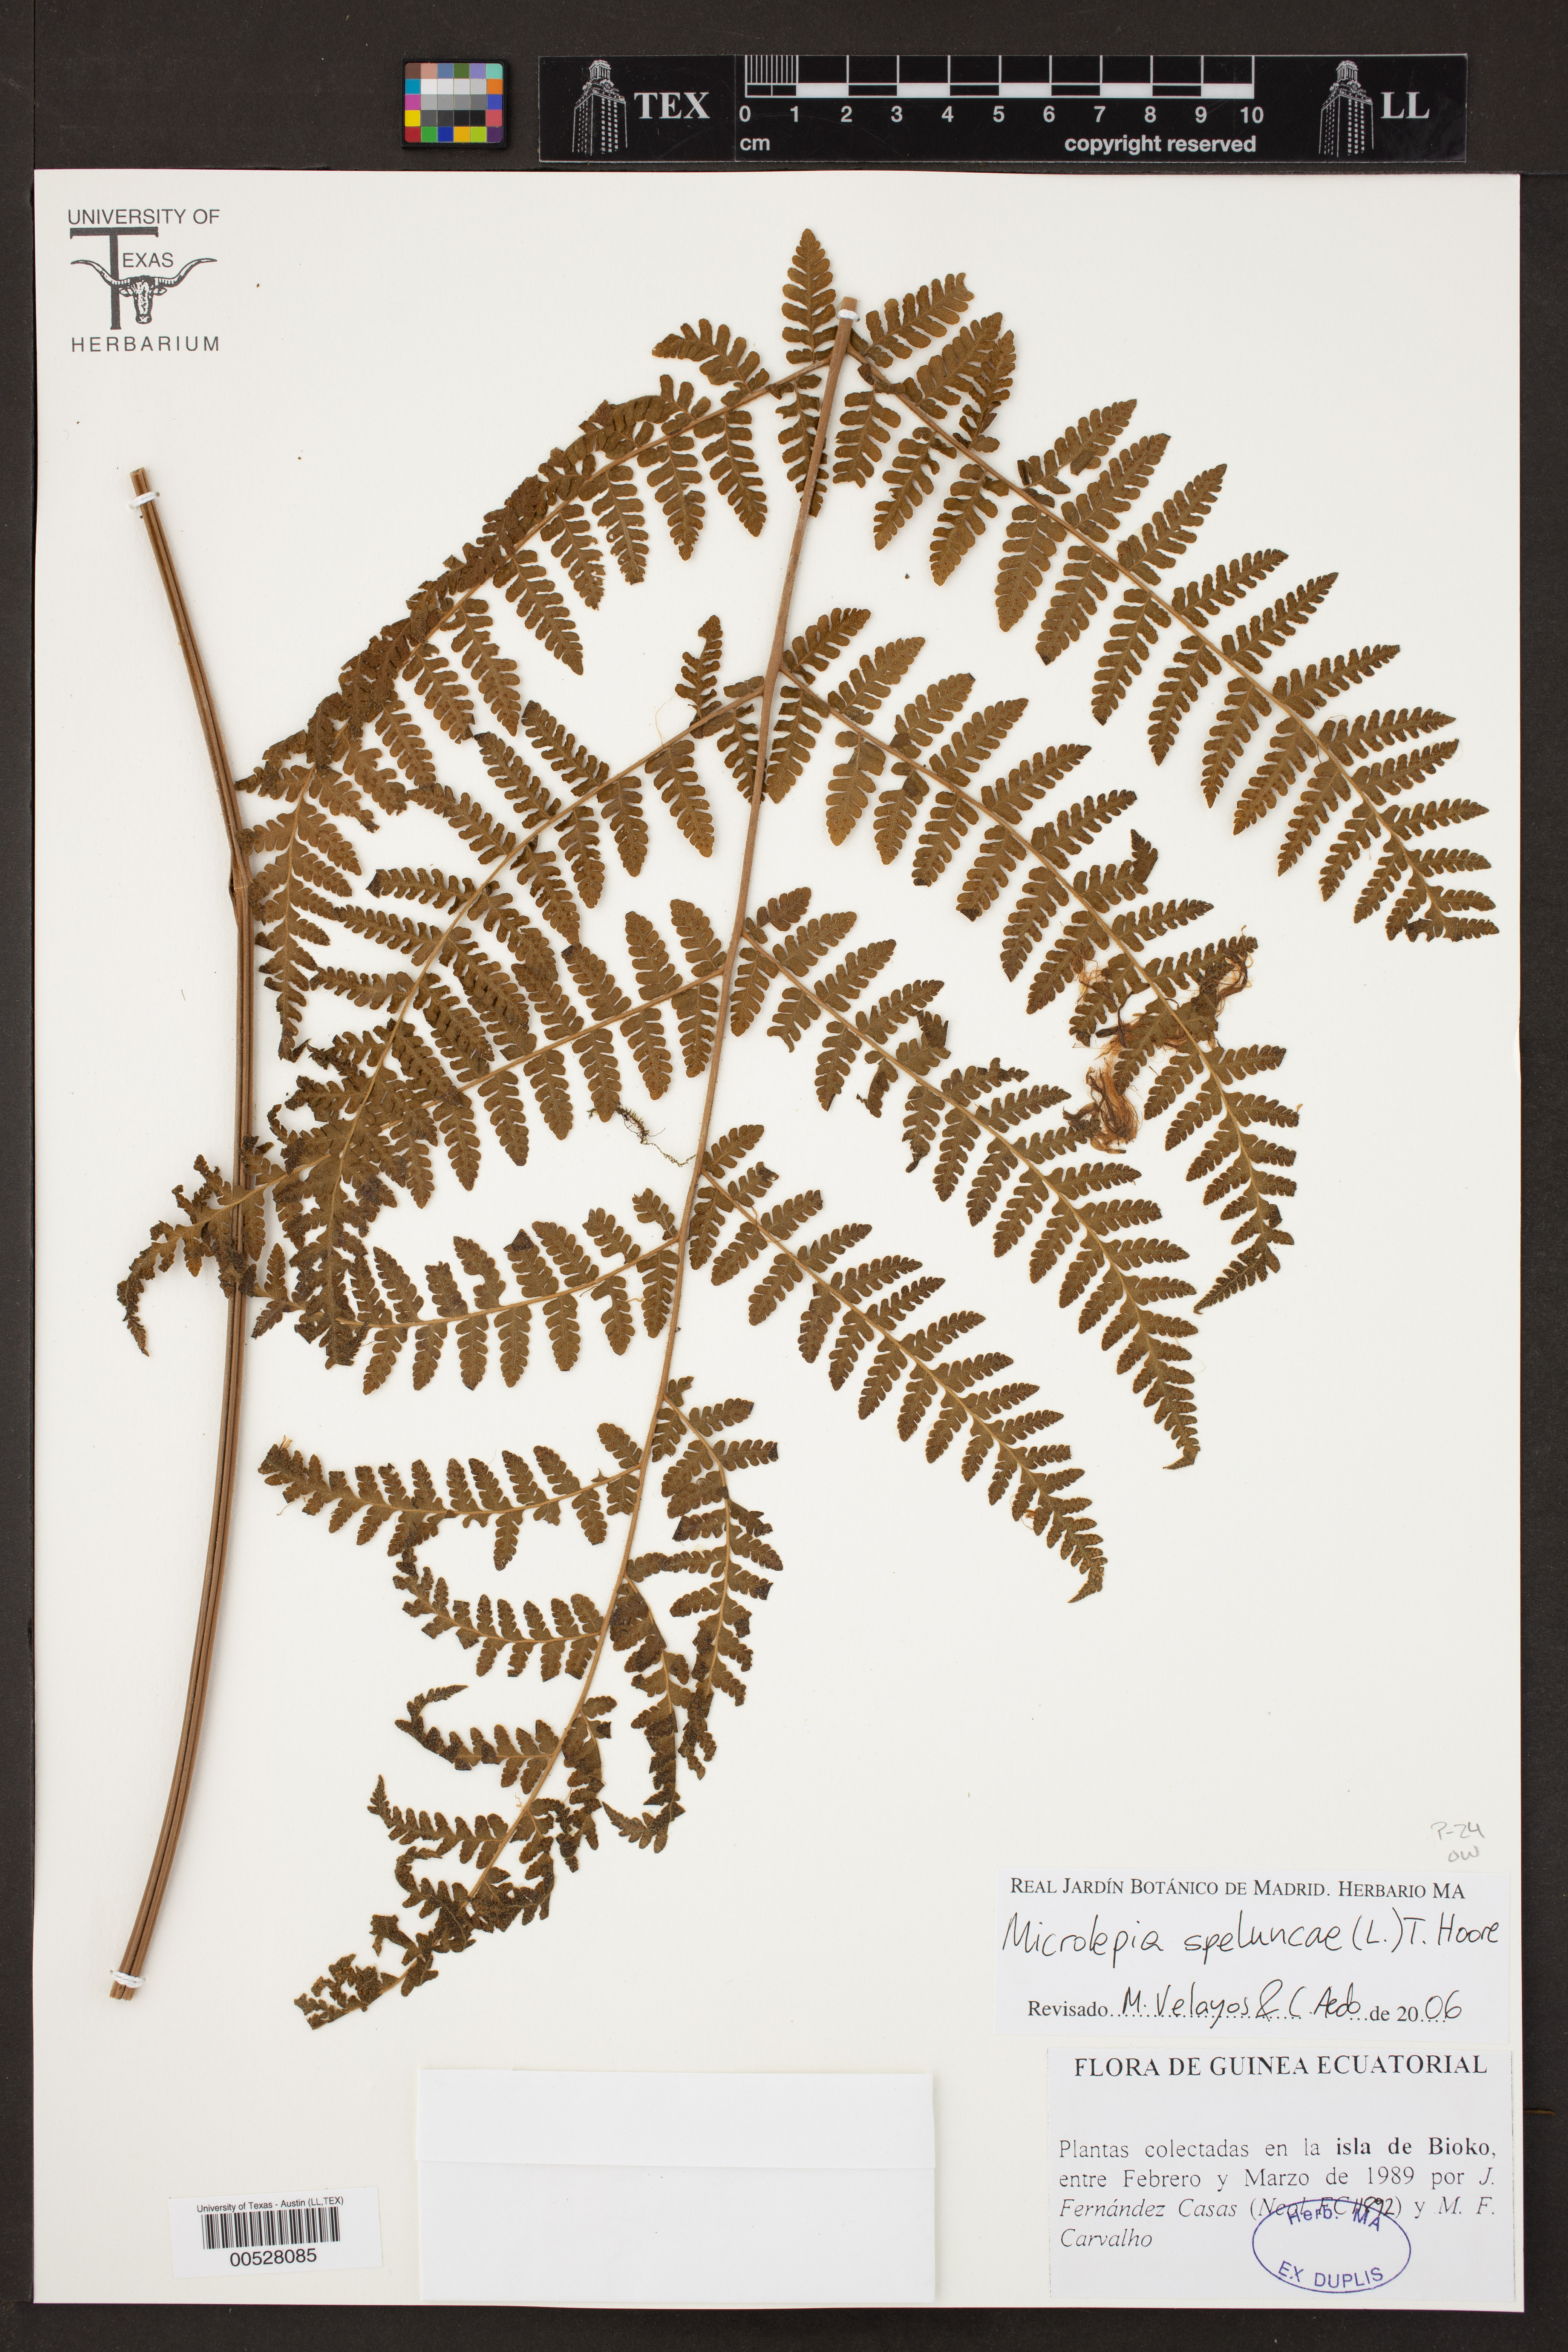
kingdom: Plantae
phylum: Tracheophyta
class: Polypodiopsida
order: Polypodiales
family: Dennstaedtiaceae
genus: Microlepia
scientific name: Microlepia speluncae
